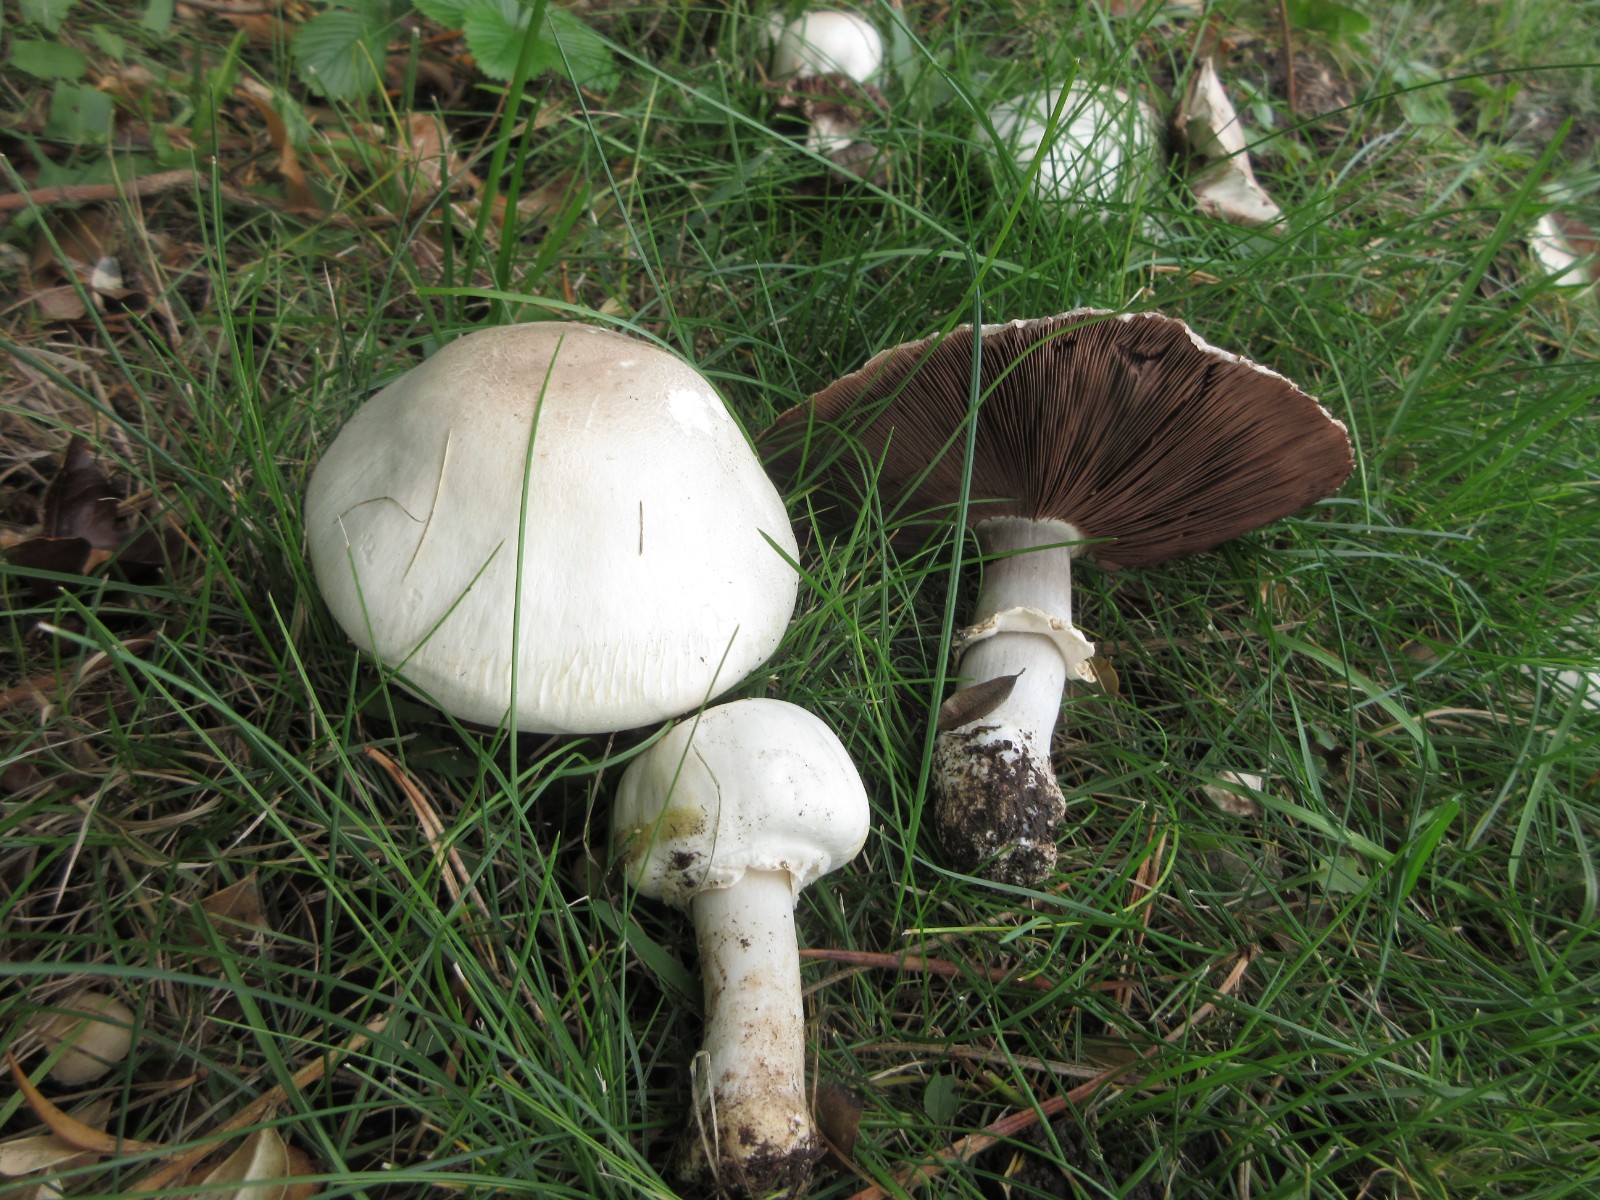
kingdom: Fungi
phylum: Basidiomycota
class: Agaricomycetes
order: Agaricales
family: Agaricaceae
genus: Agaricus
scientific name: Agaricus xanthodermus
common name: karbol-champignon
